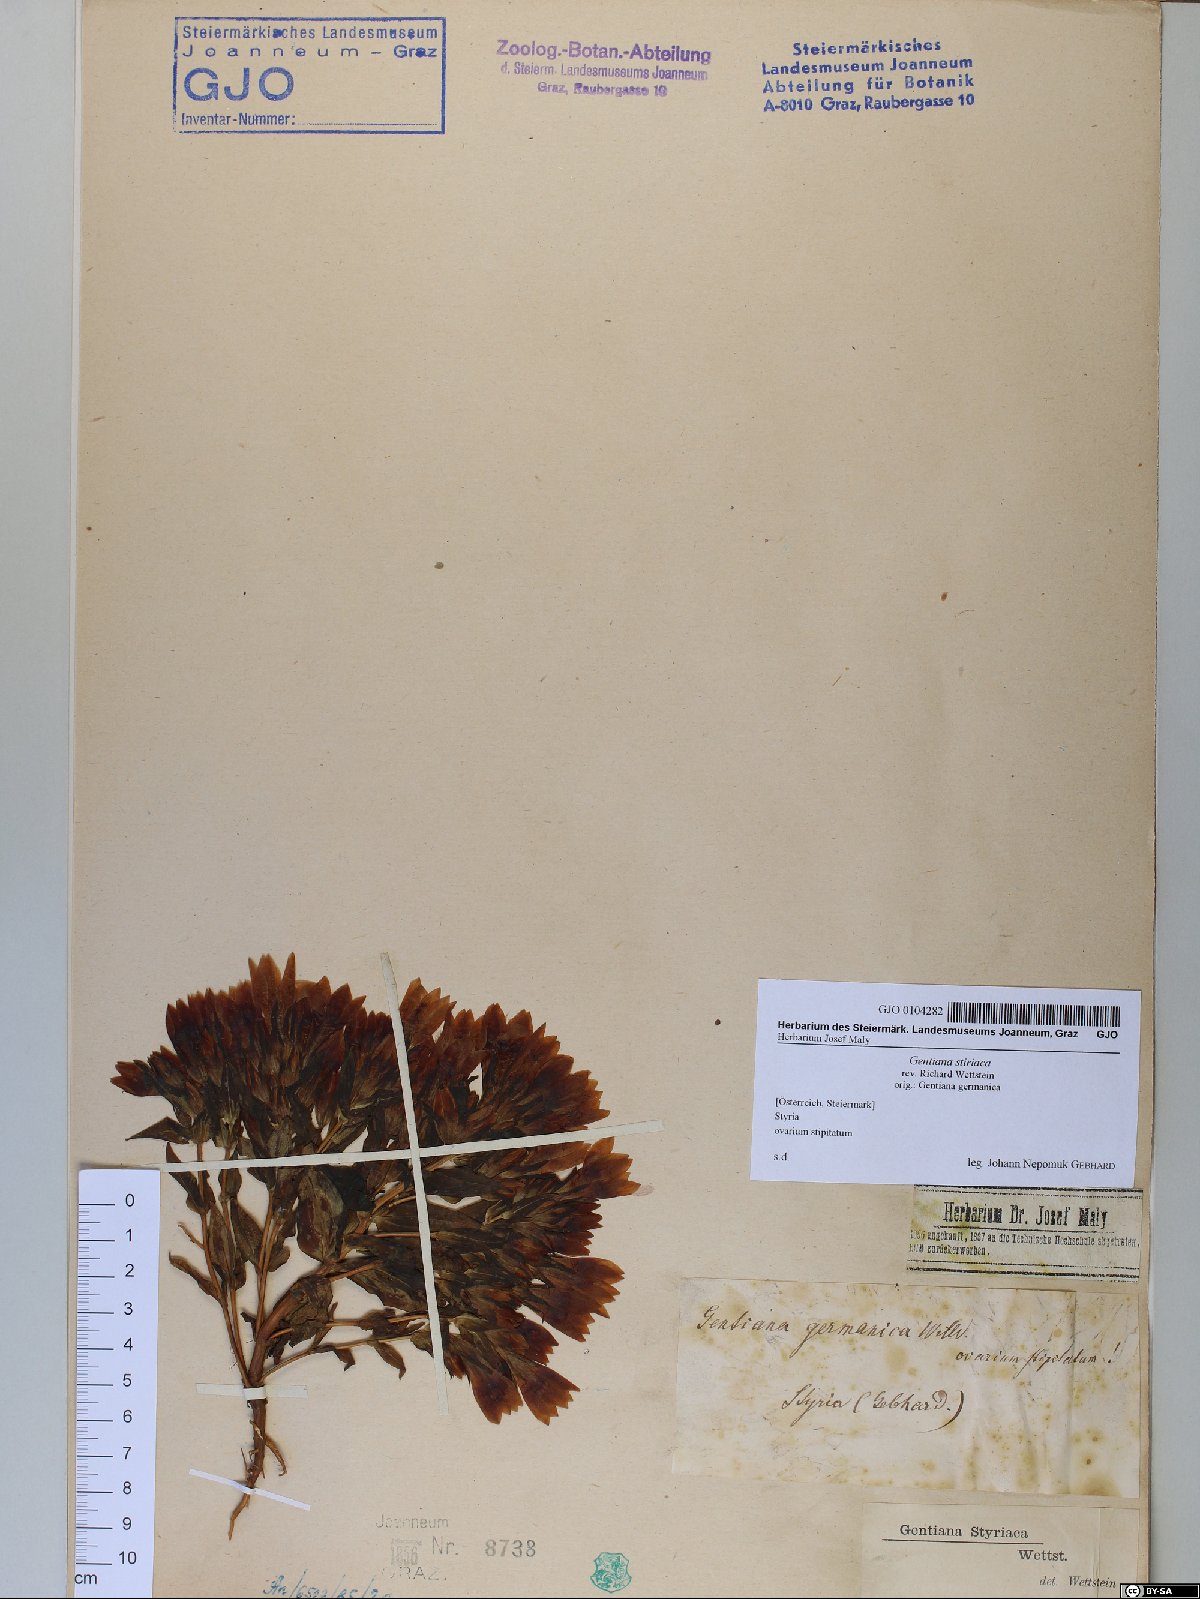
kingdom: Plantae
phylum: Tracheophyta
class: Magnoliopsida
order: Gentianales
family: Gentianaceae
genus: Gentianella
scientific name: Gentianella rhaetica
